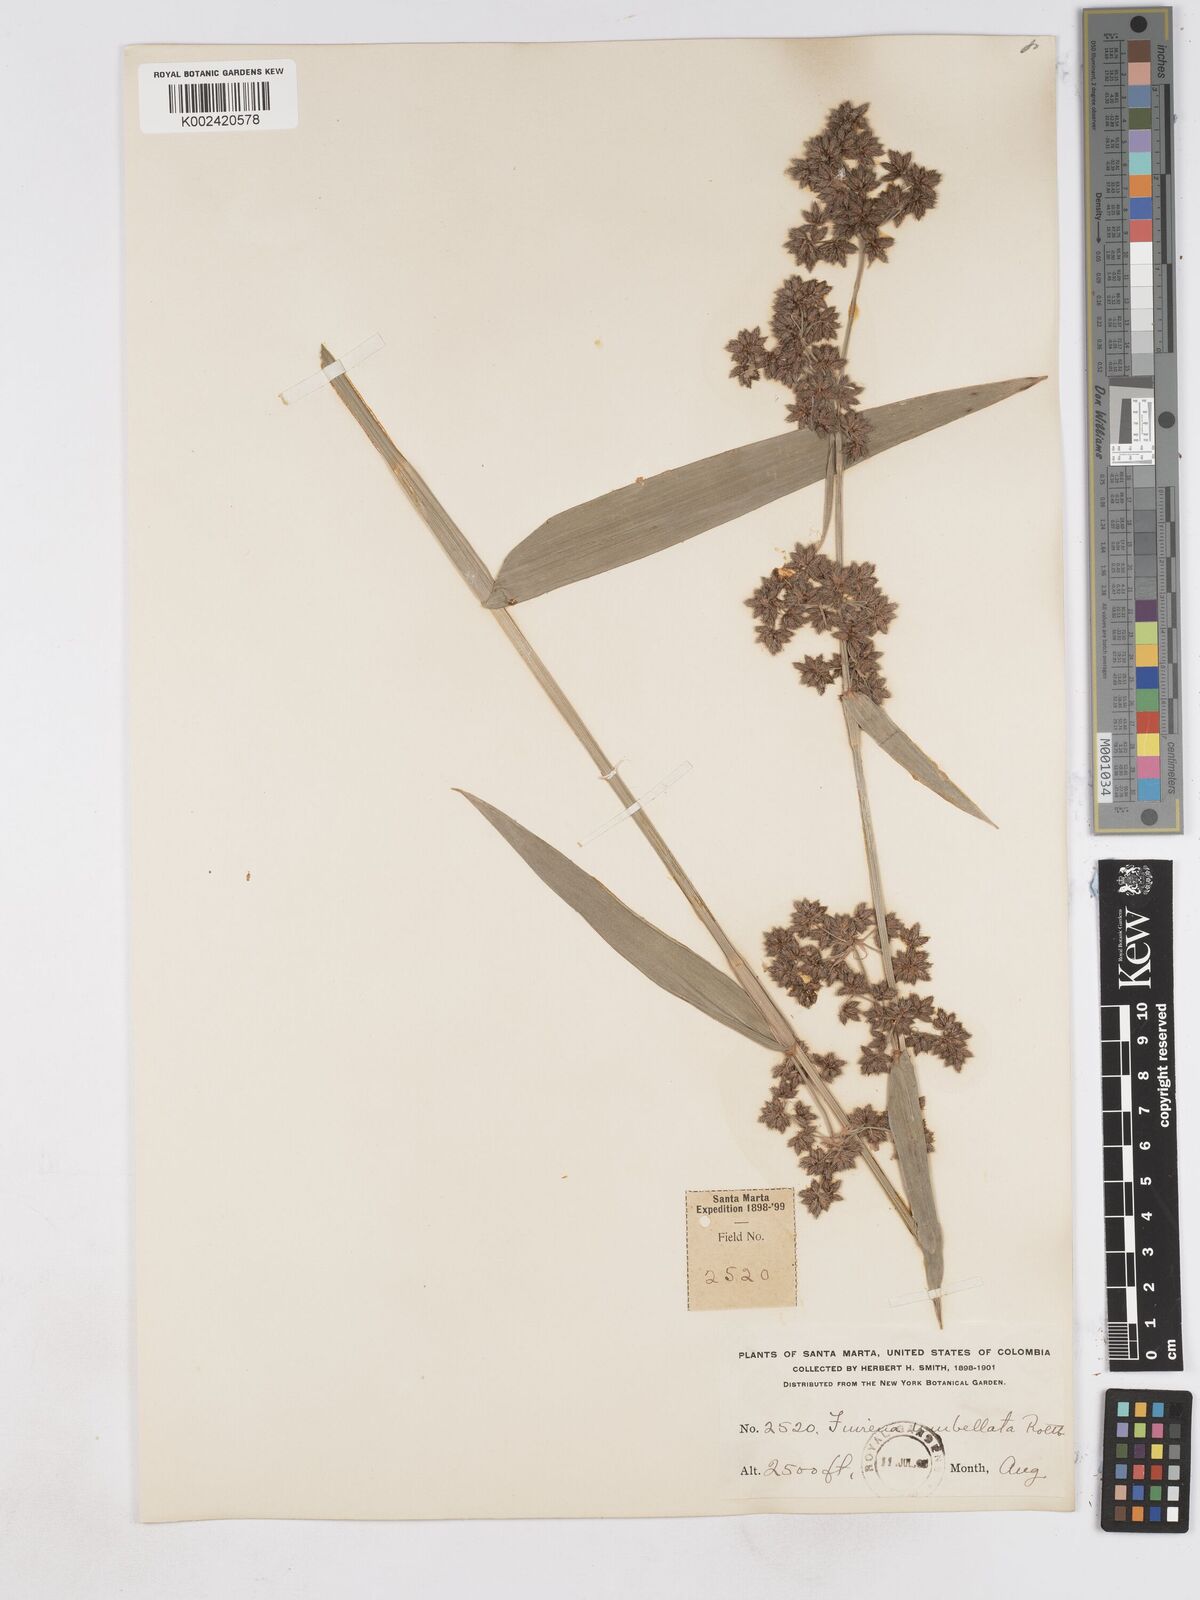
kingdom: Plantae
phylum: Tracheophyta
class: Liliopsida
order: Poales
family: Cyperaceae
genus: Fuirena
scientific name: Fuirena umbellata
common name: Yefen
